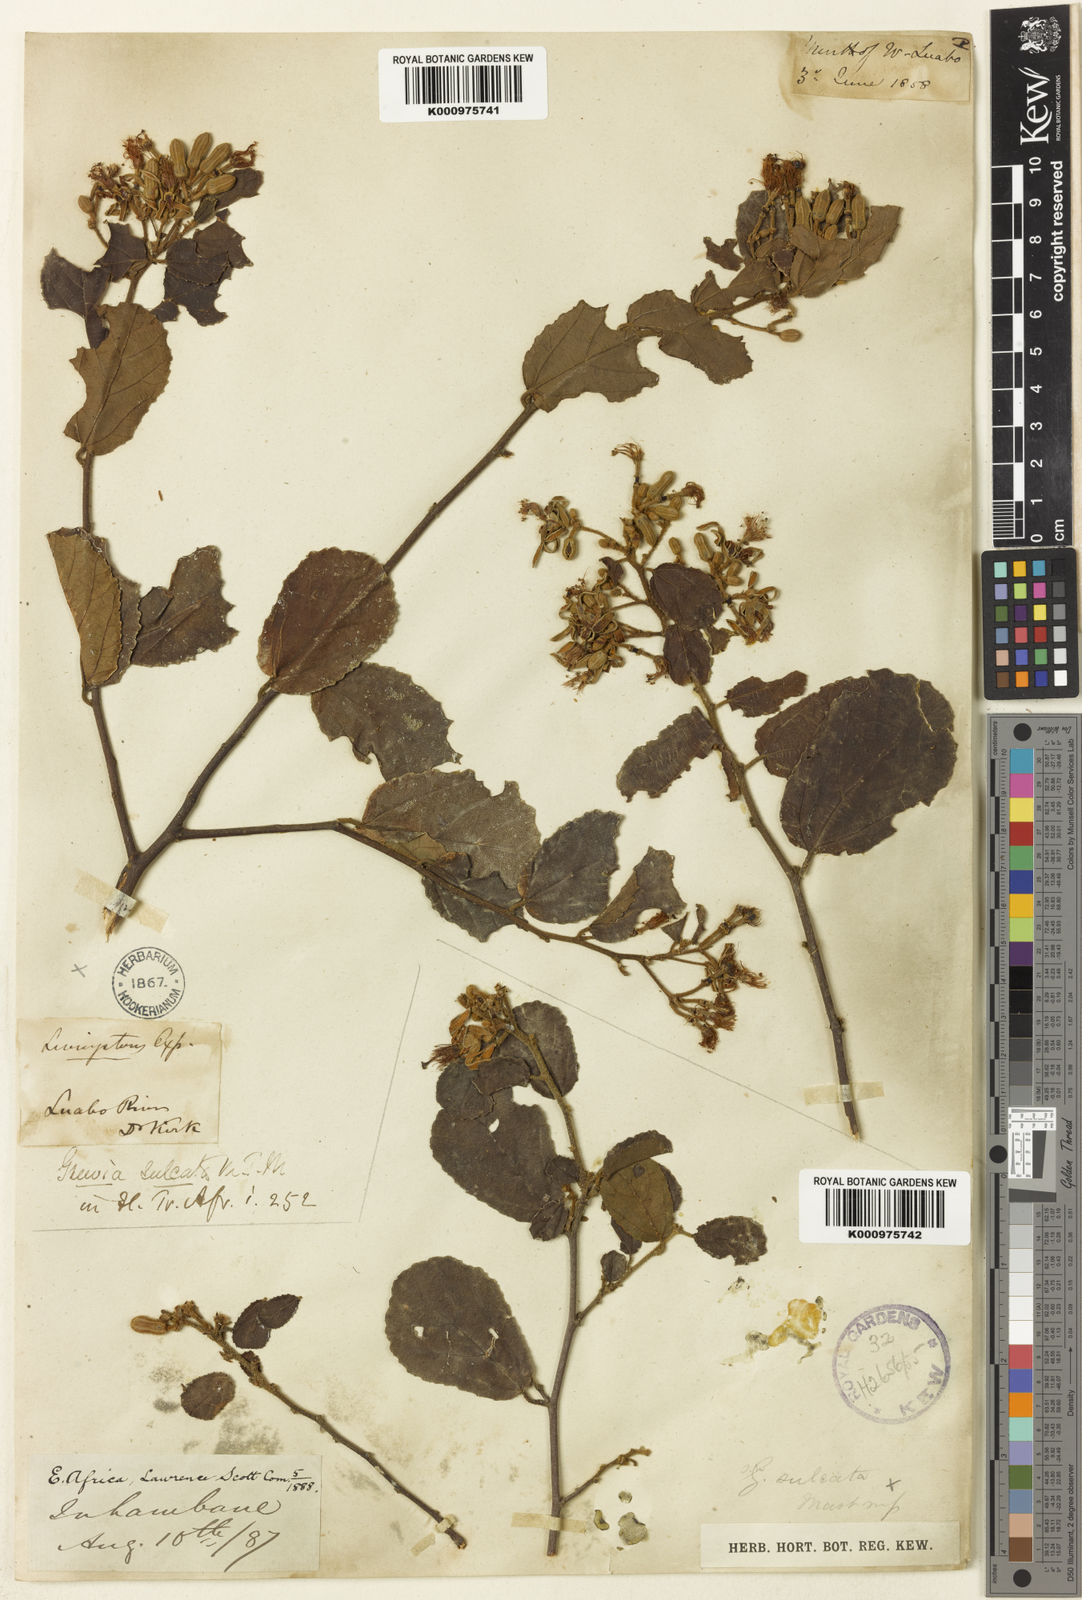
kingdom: Plantae
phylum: Tracheophyta
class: Magnoliopsida
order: Malvales
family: Malvaceae
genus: Grewia
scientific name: Grewia sulcata
